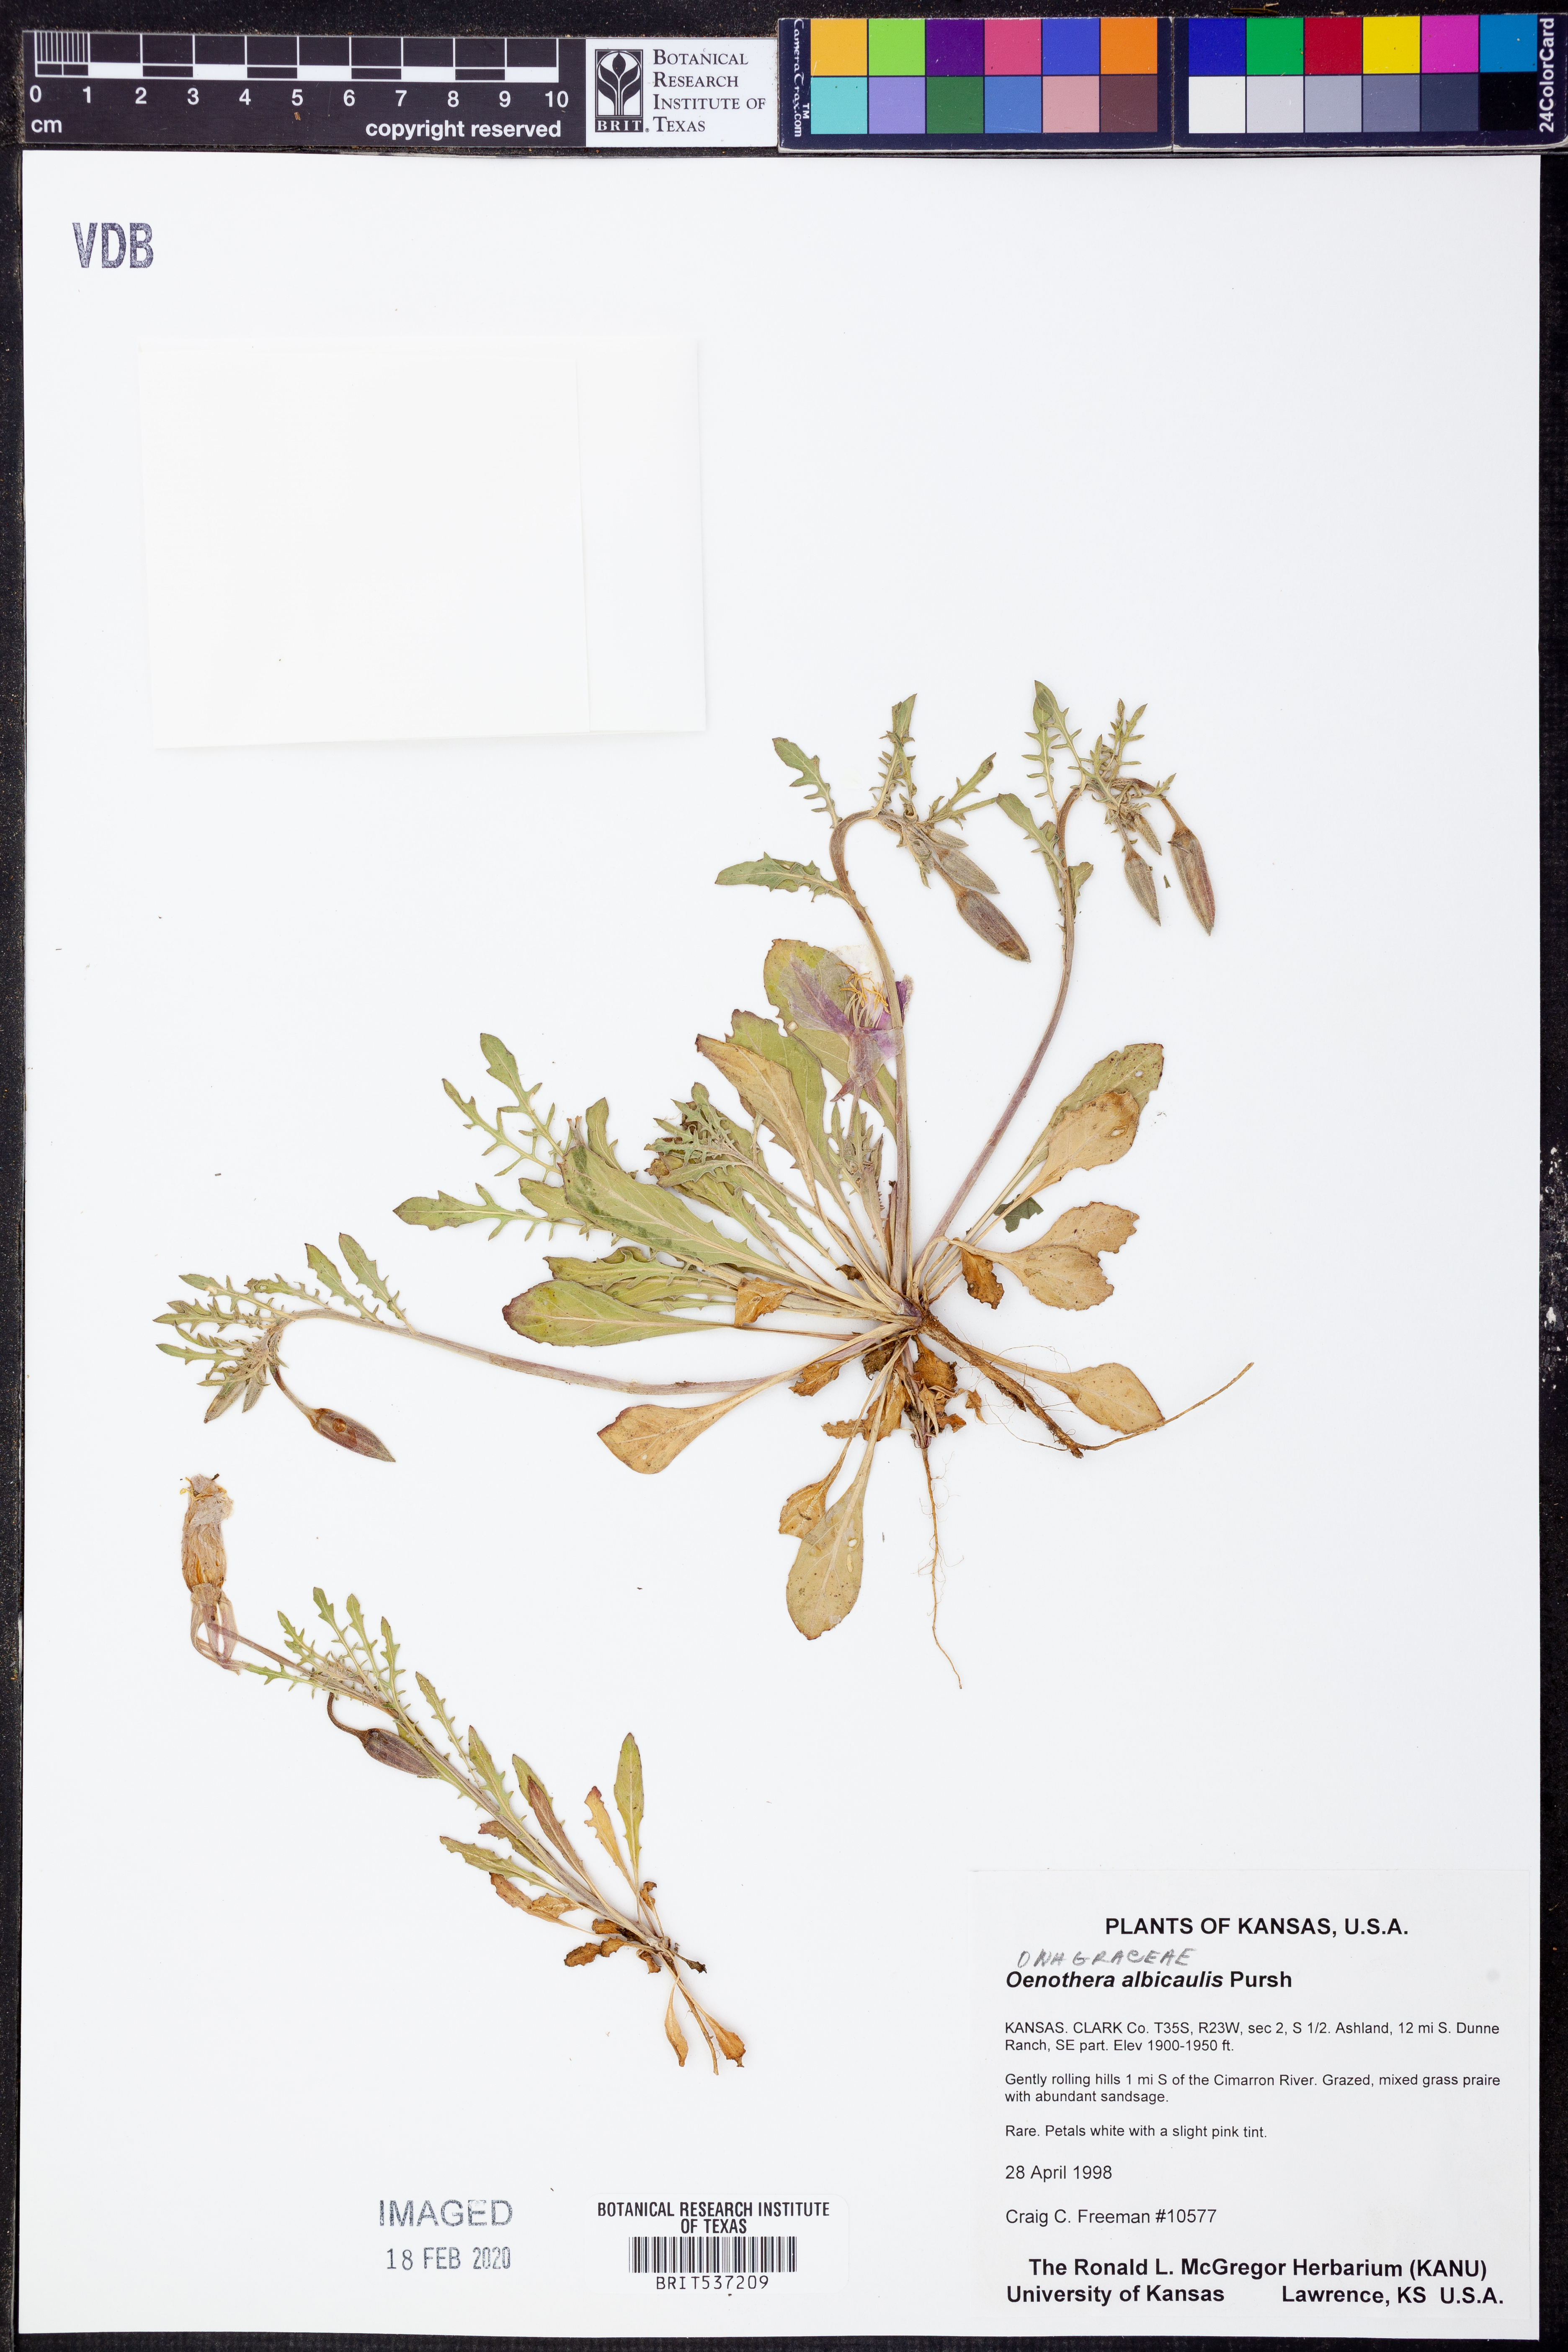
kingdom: Plantae
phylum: Tracheophyta
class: Magnoliopsida
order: Myrtales
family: Onagraceae
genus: Oenothera
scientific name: Oenothera albicaulis
